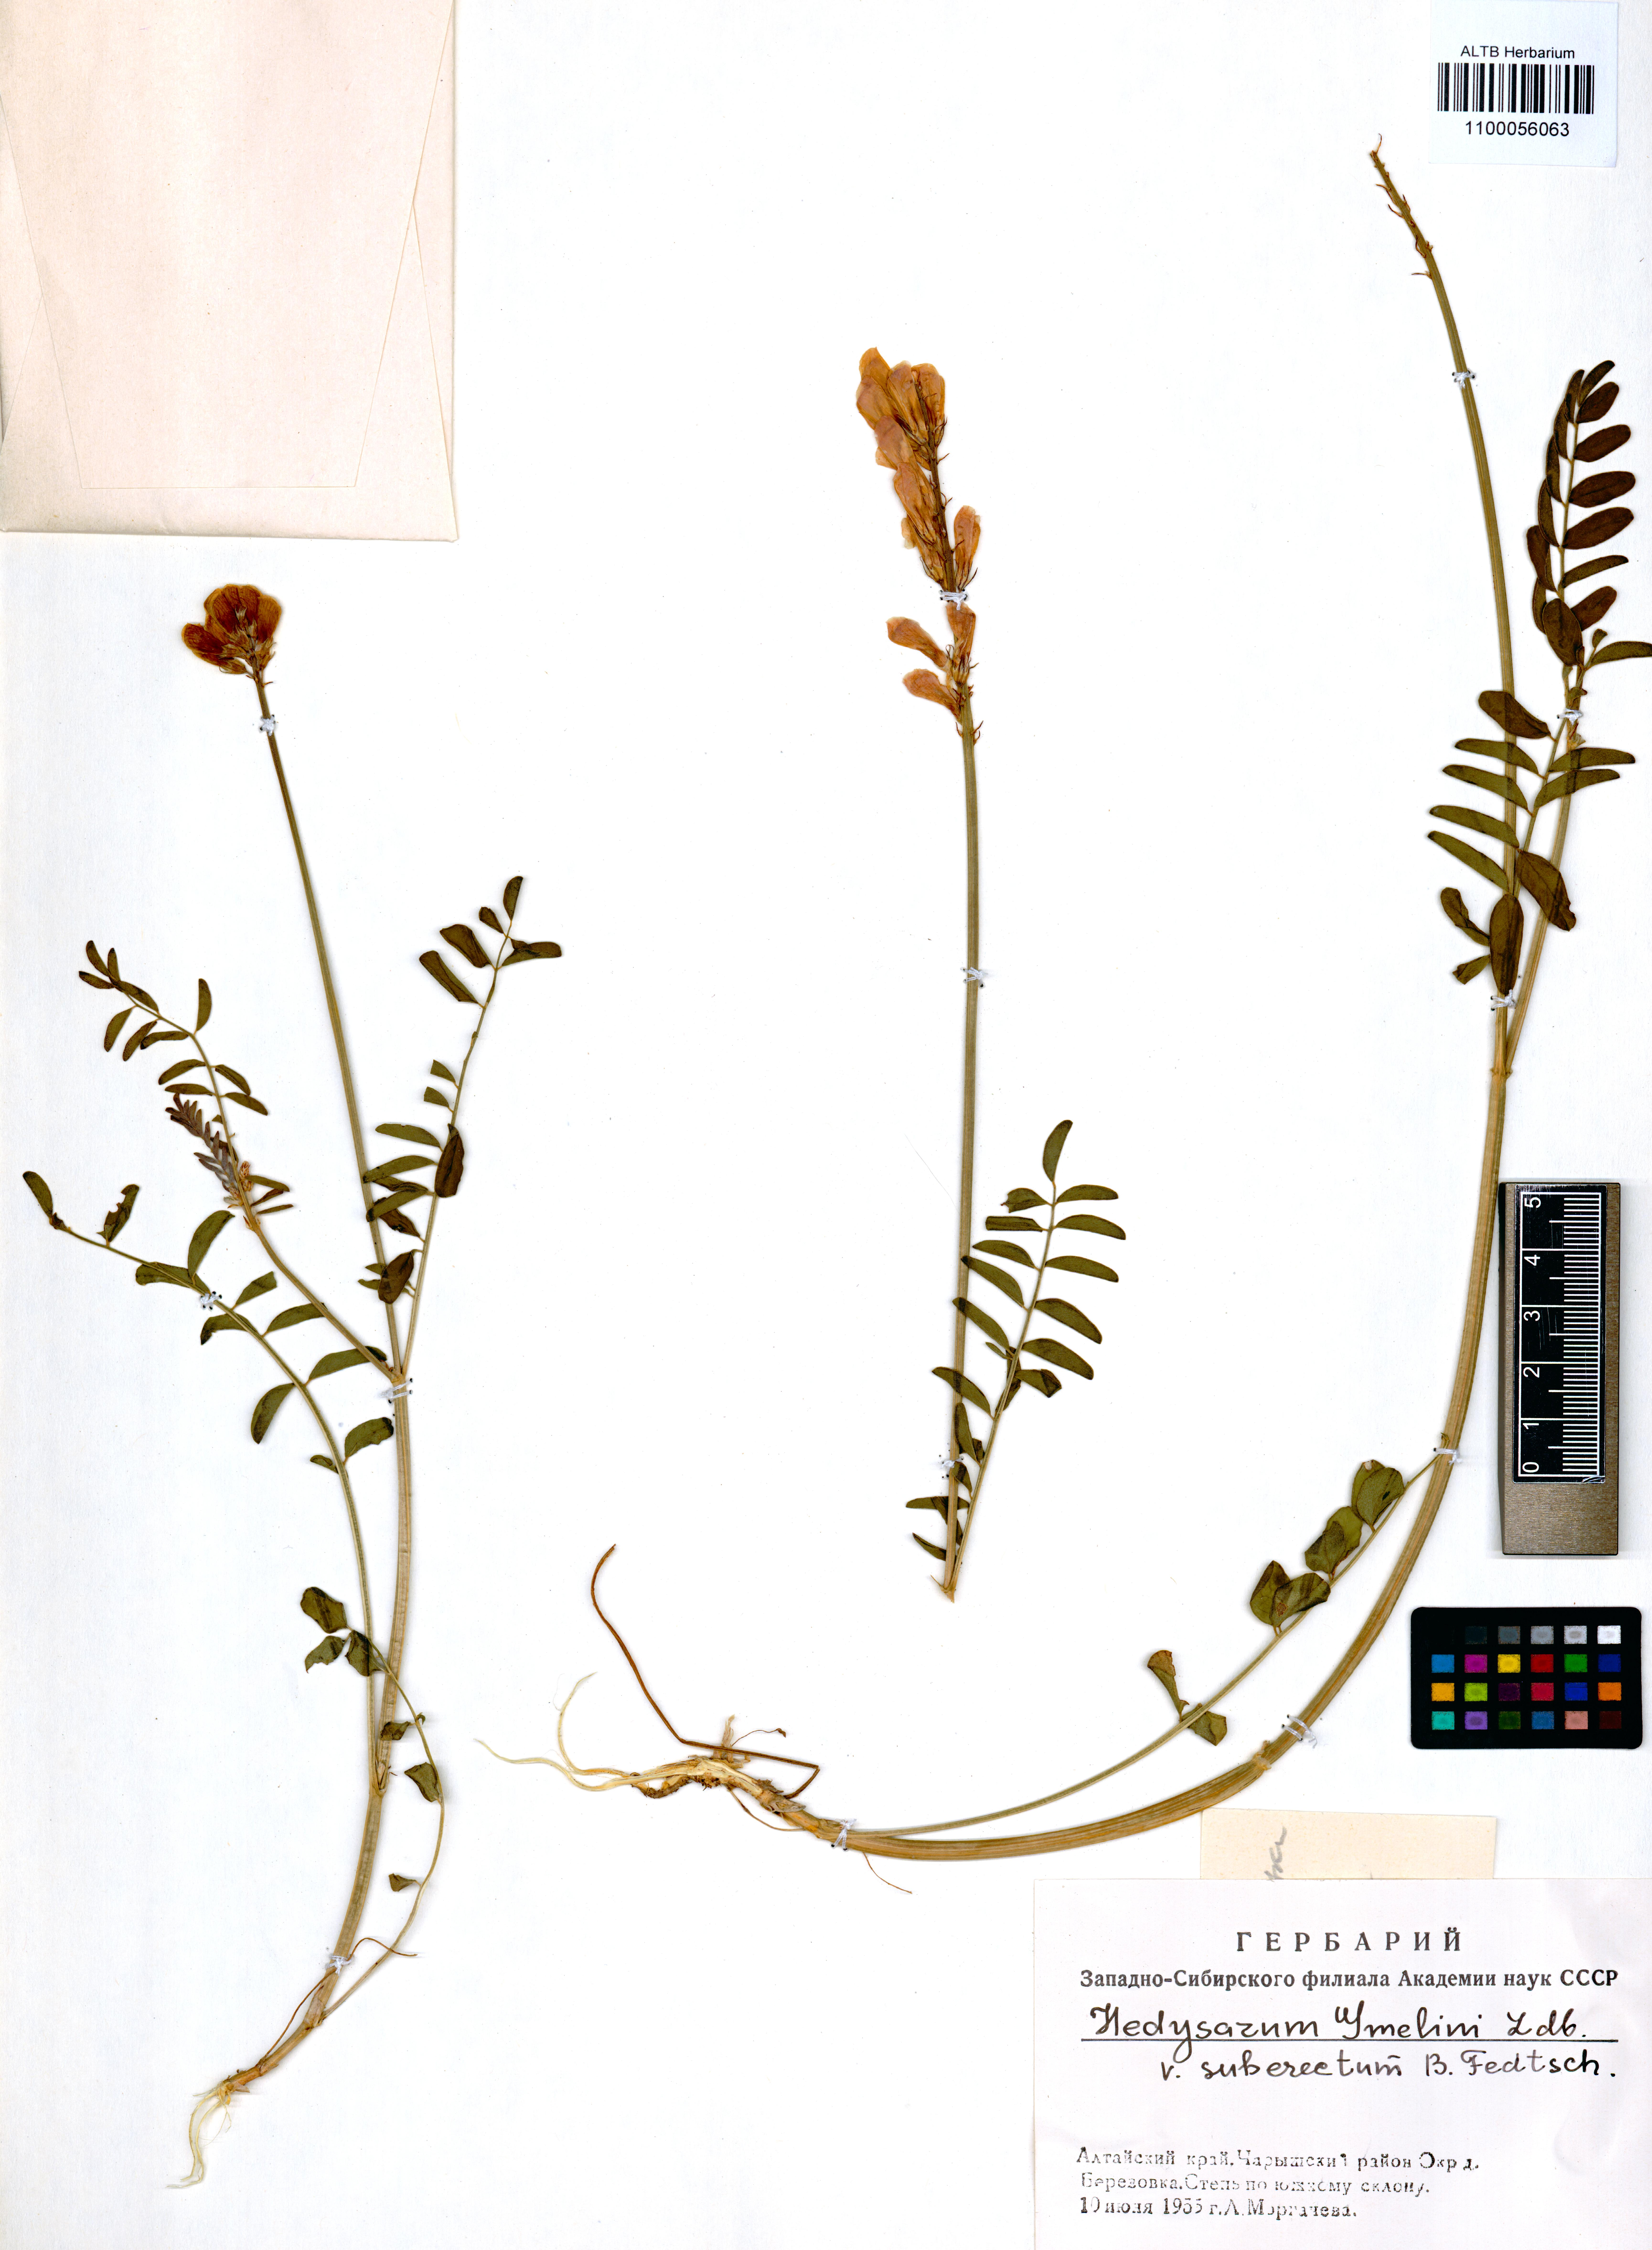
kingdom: Plantae
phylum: Tracheophyta
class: Magnoliopsida
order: Fabales
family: Fabaceae
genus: Hedysarum
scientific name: Hedysarum gmelinii
